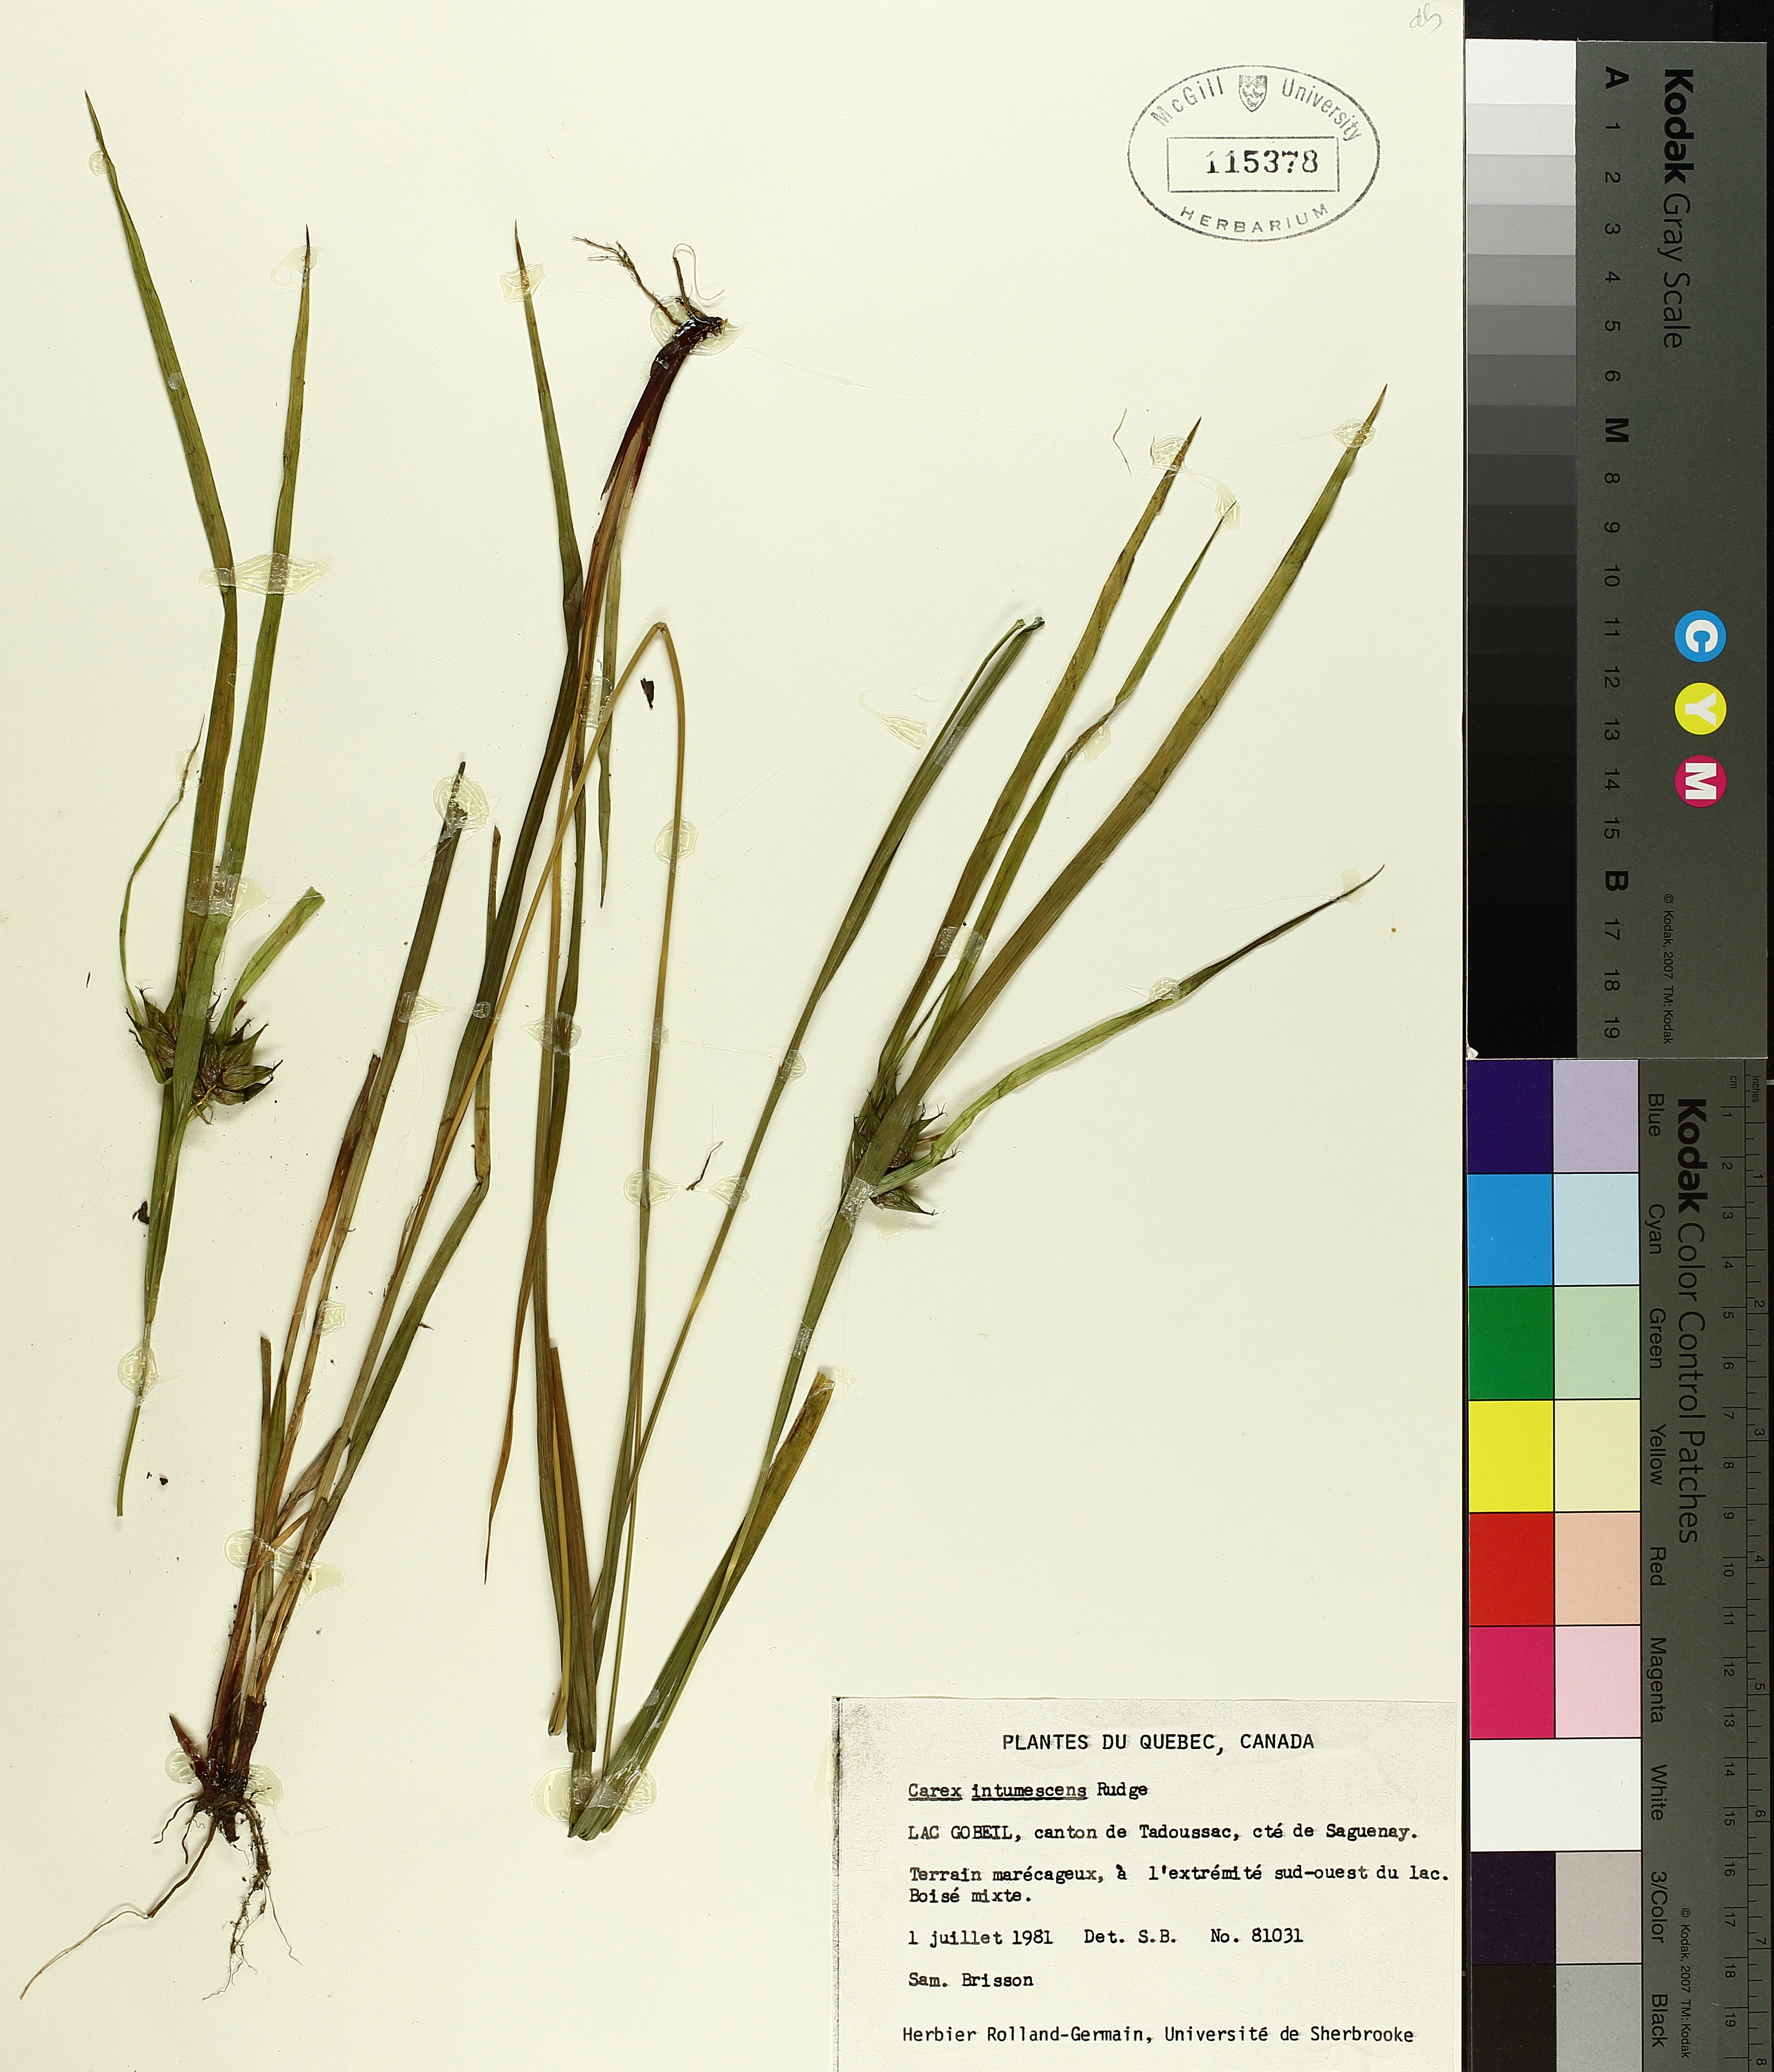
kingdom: Plantae
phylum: Tracheophyta
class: Liliopsida
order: Poales
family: Cyperaceae
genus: Carex
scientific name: Carex intumescens
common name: Greater bladder sedge
